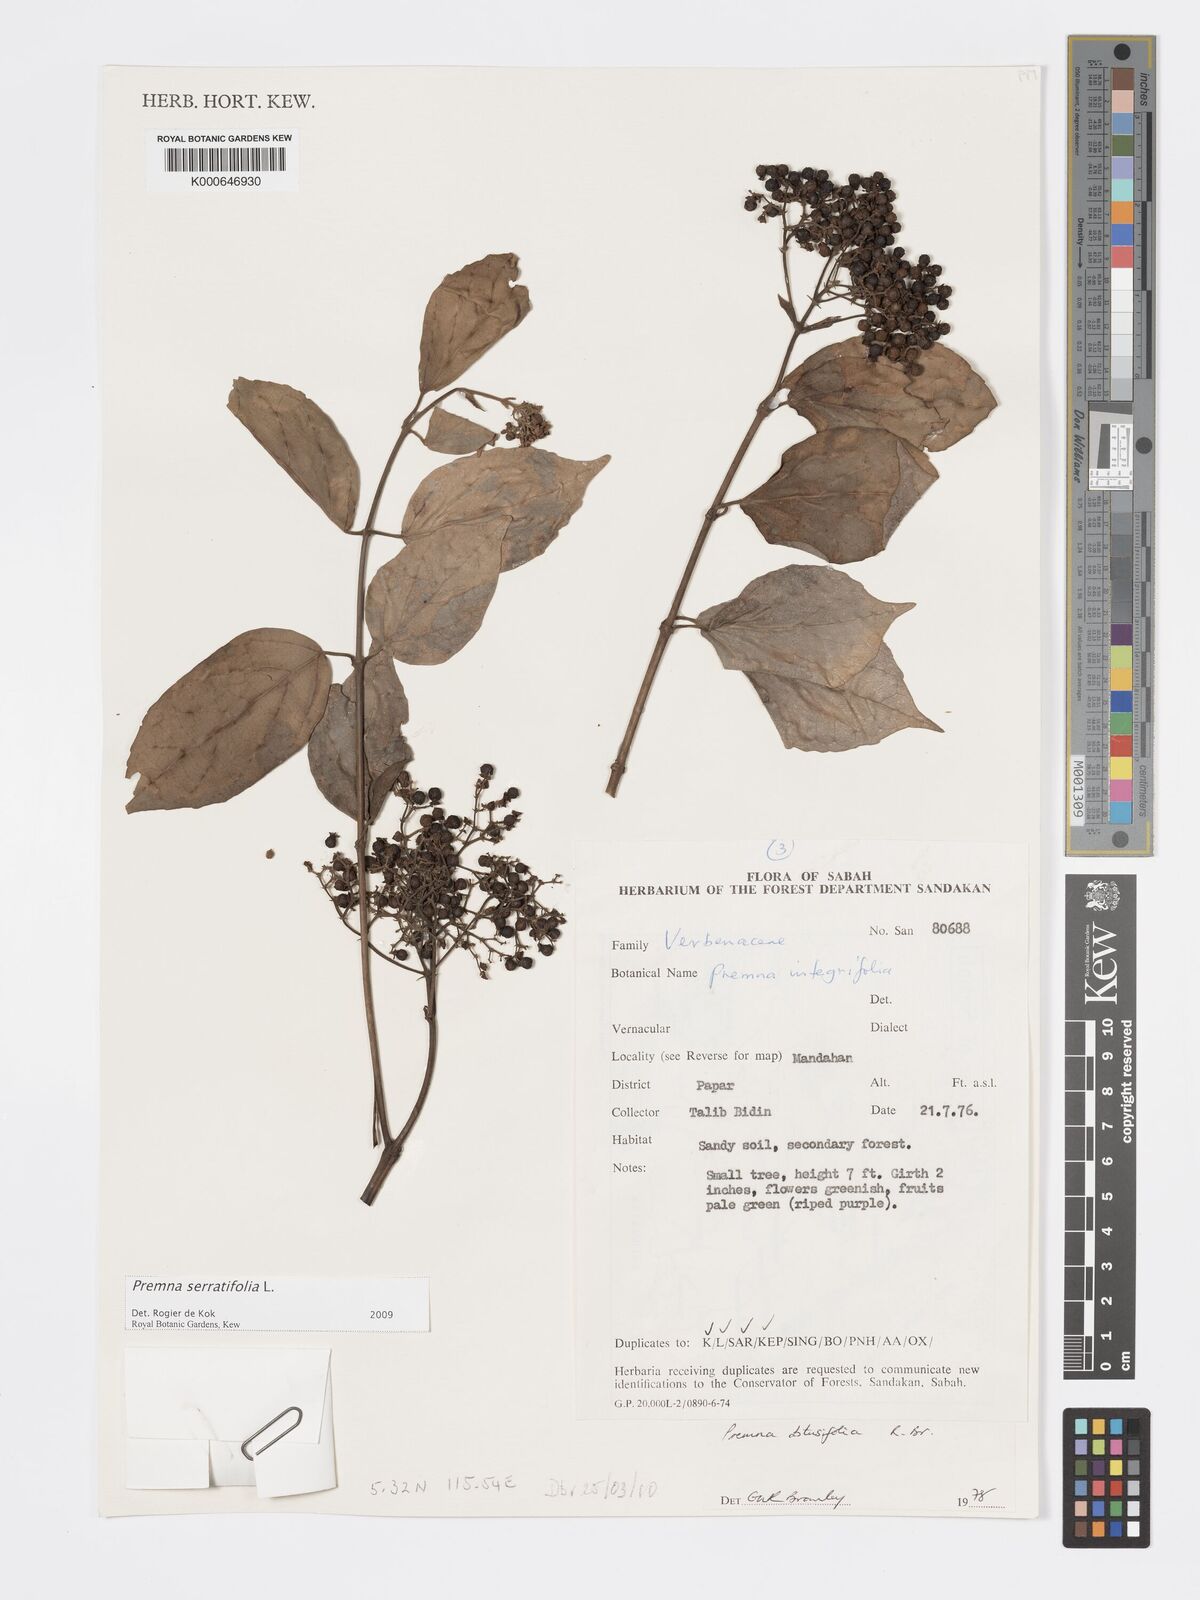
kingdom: Plantae
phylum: Tracheophyta
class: Magnoliopsida
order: Lamiales
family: Lamiaceae
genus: Premna
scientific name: Premna serratifolia
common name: Bastard guelder
